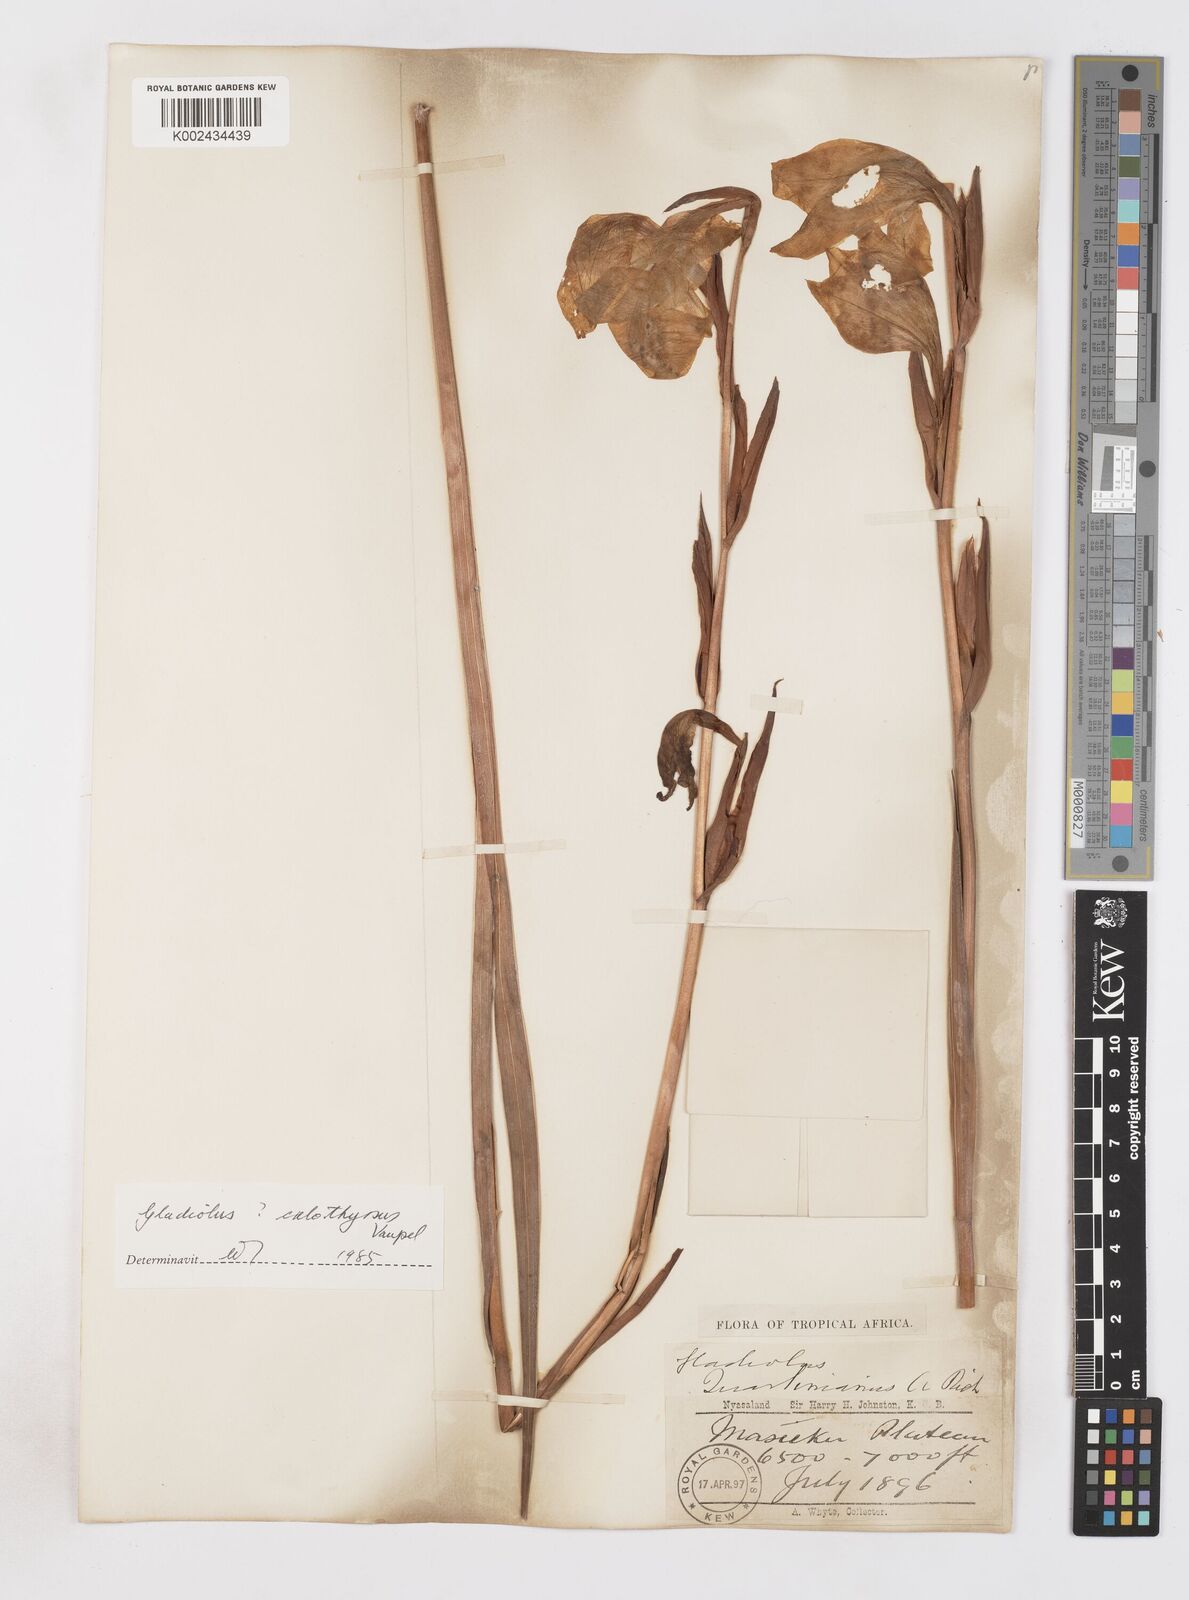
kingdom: Plantae
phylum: Tracheophyta
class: Liliopsida
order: Asparagales
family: Iridaceae
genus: Gladiolus
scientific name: Gladiolus dalenii
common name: Cornflag
